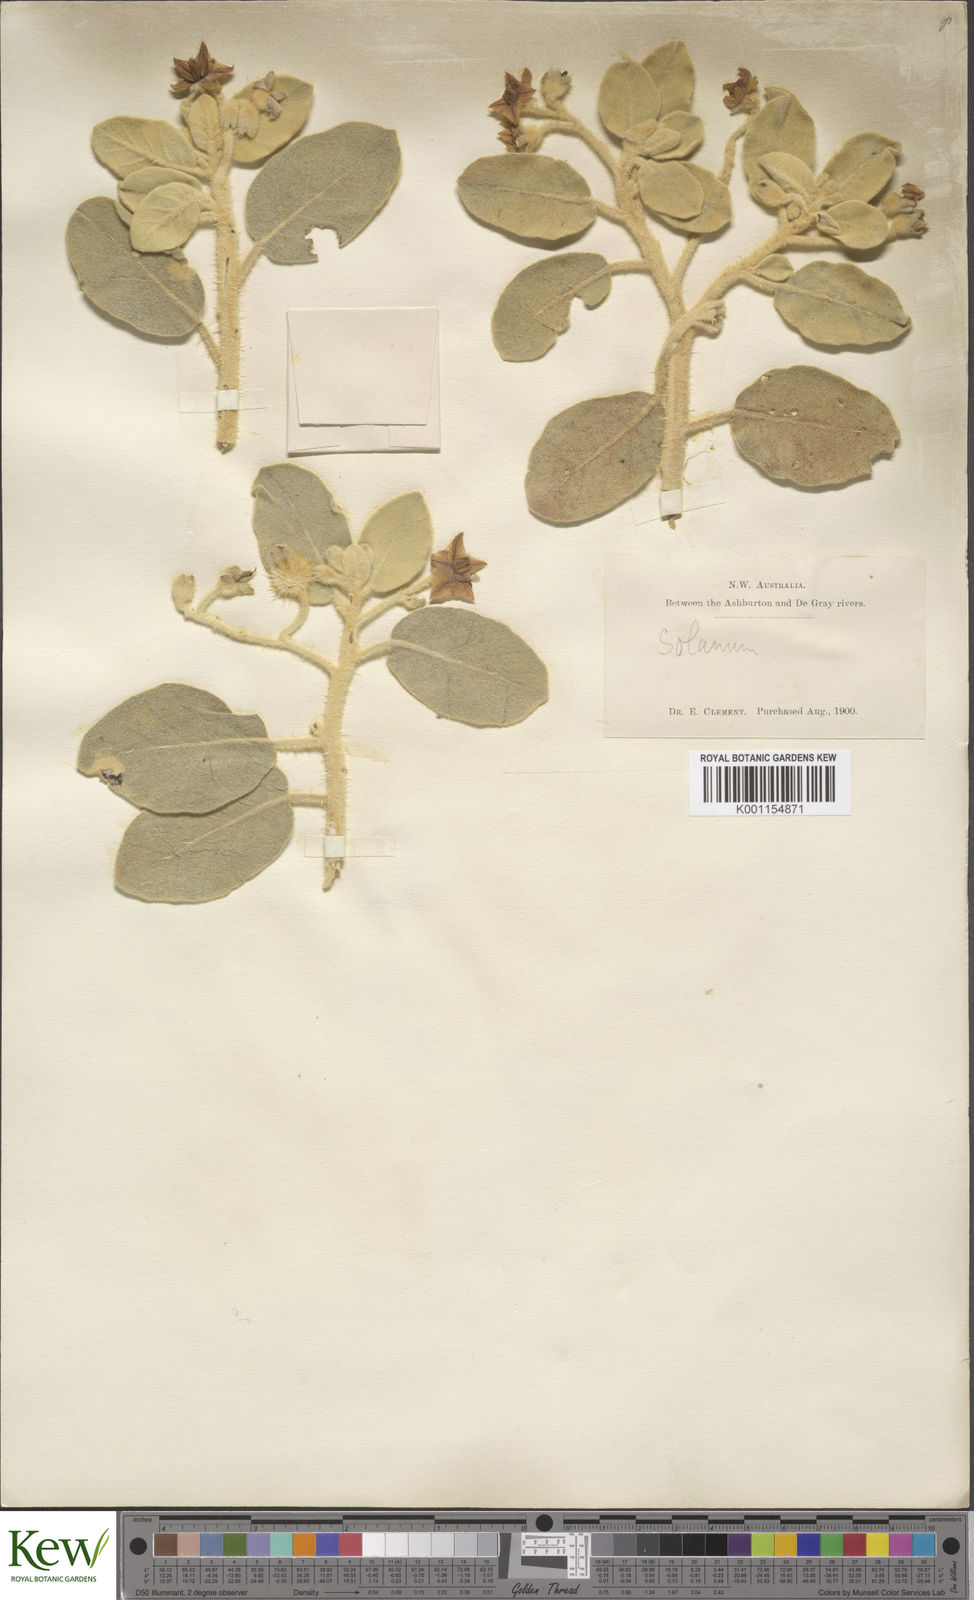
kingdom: Plantae
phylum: Tracheophyta
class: Magnoliopsida
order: Solanales
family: Solanaceae
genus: Solanum
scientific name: Solanum lasiophyllum
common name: Flannelbush
